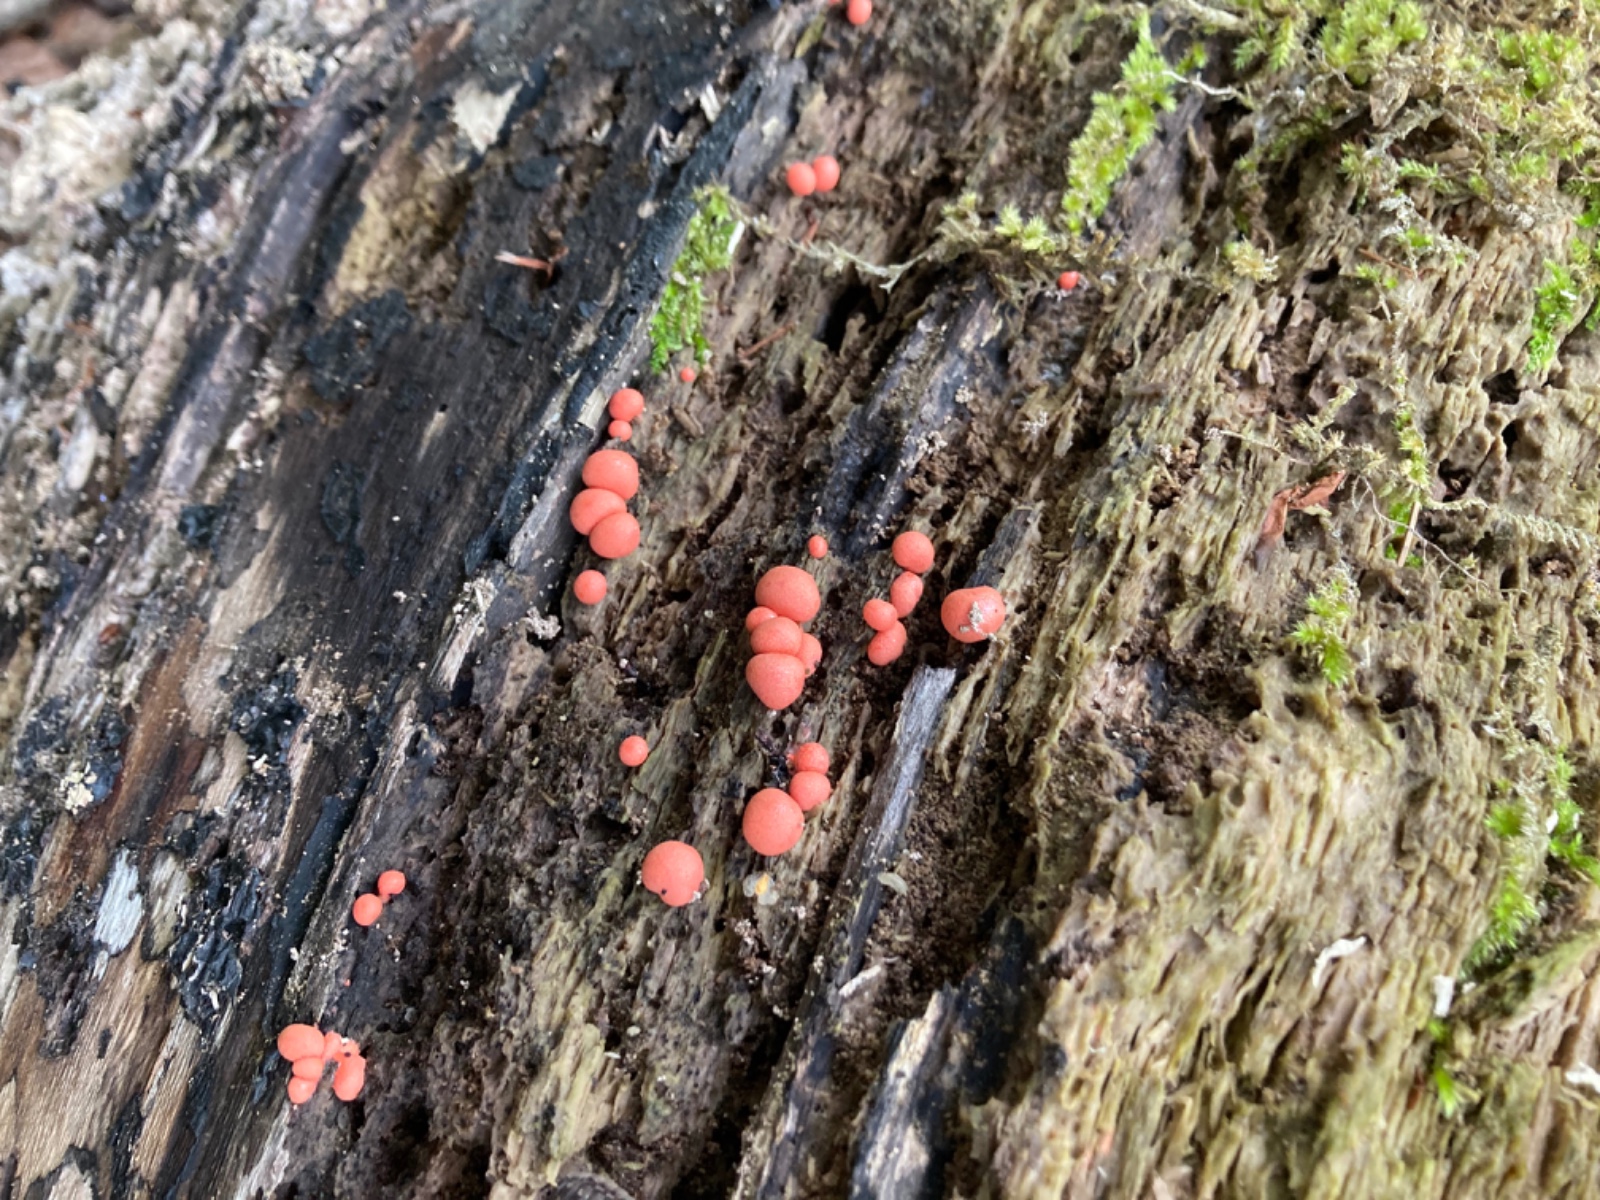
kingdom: Protozoa
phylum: Mycetozoa
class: Myxomycetes
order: Cribrariales
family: Tubiferaceae
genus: Lycogala
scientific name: Lycogala epidendrum
